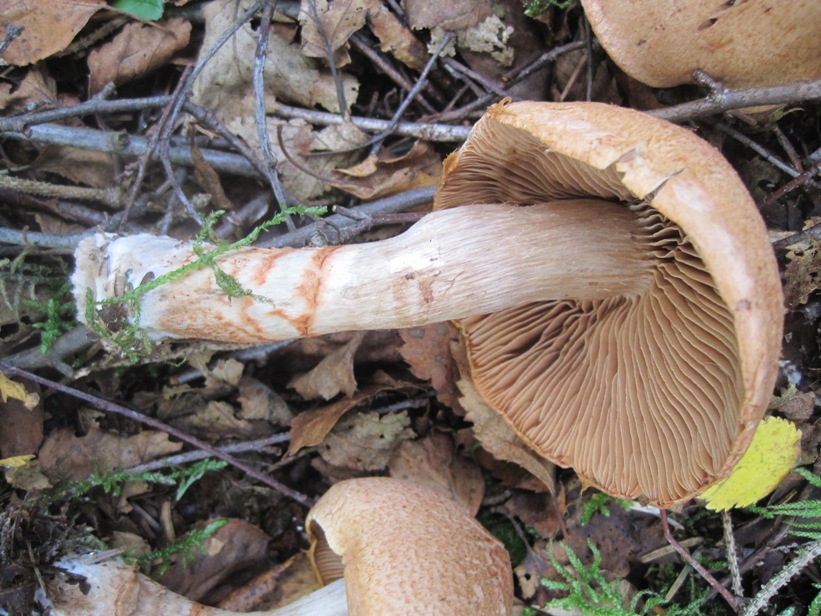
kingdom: Fungi
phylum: Basidiomycota
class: Agaricomycetes
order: Agaricales
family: Cortinariaceae
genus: Cortinarius
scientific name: Cortinarius armillatus
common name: cinnoberbæltet slørhat
